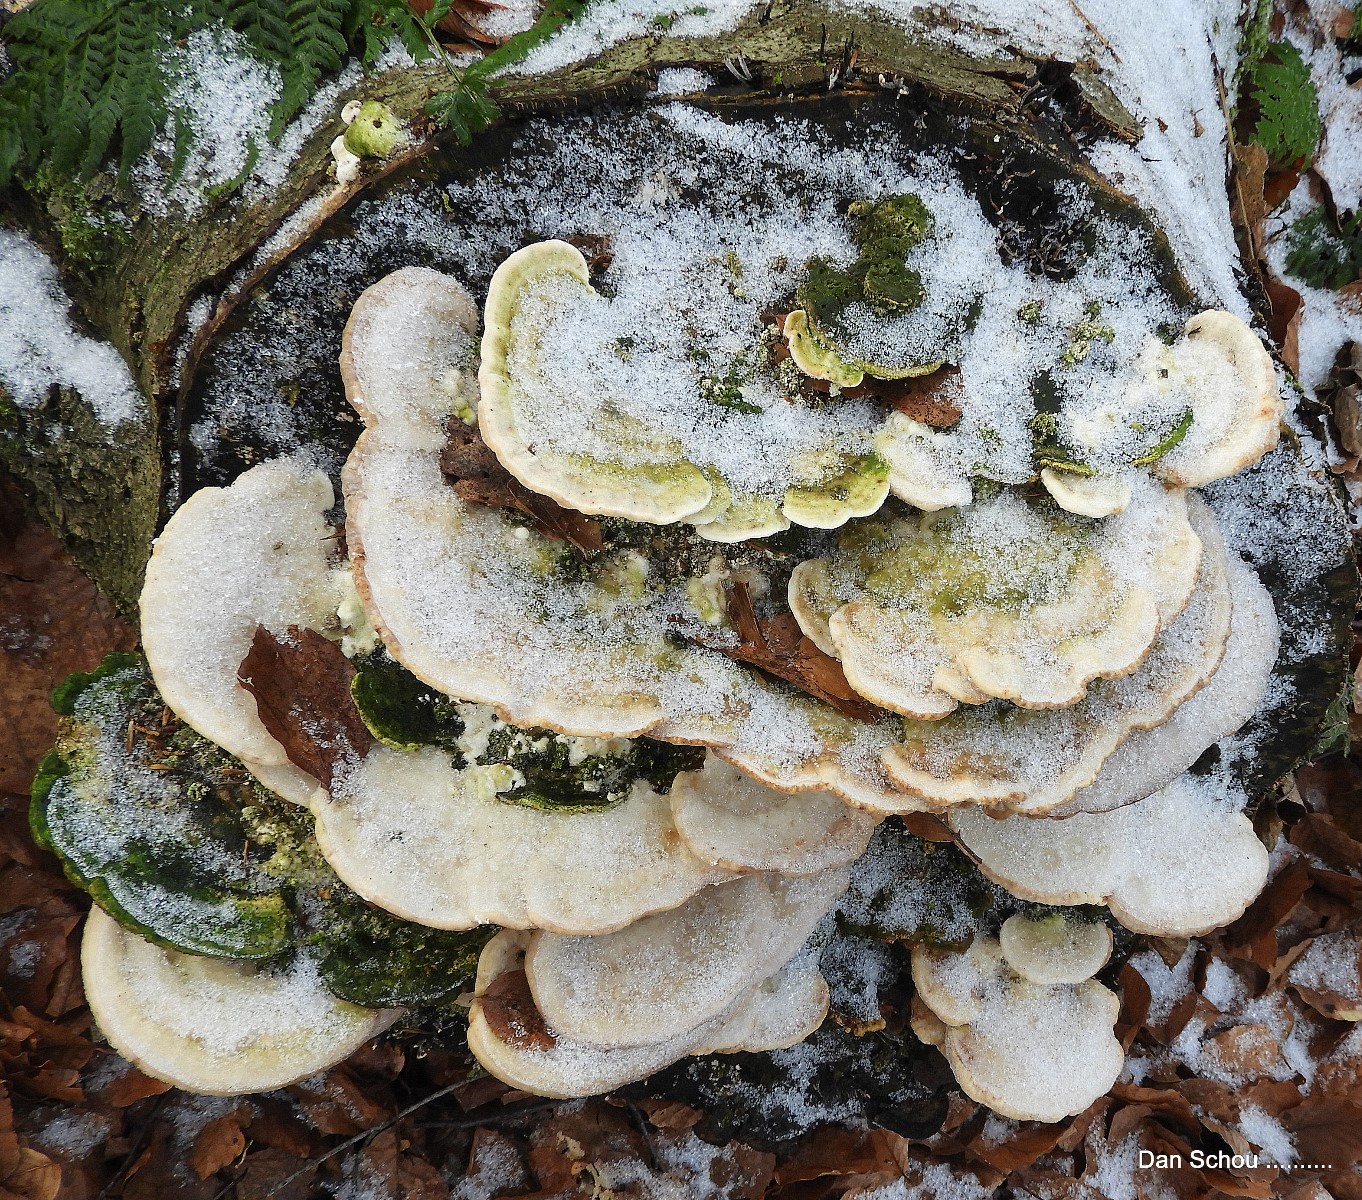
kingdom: Fungi
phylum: Basidiomycota
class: Agaricomycetes
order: Russulales
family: Stereaceae
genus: Stereum
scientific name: Stereum hirsutum
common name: håret lædersvamp
